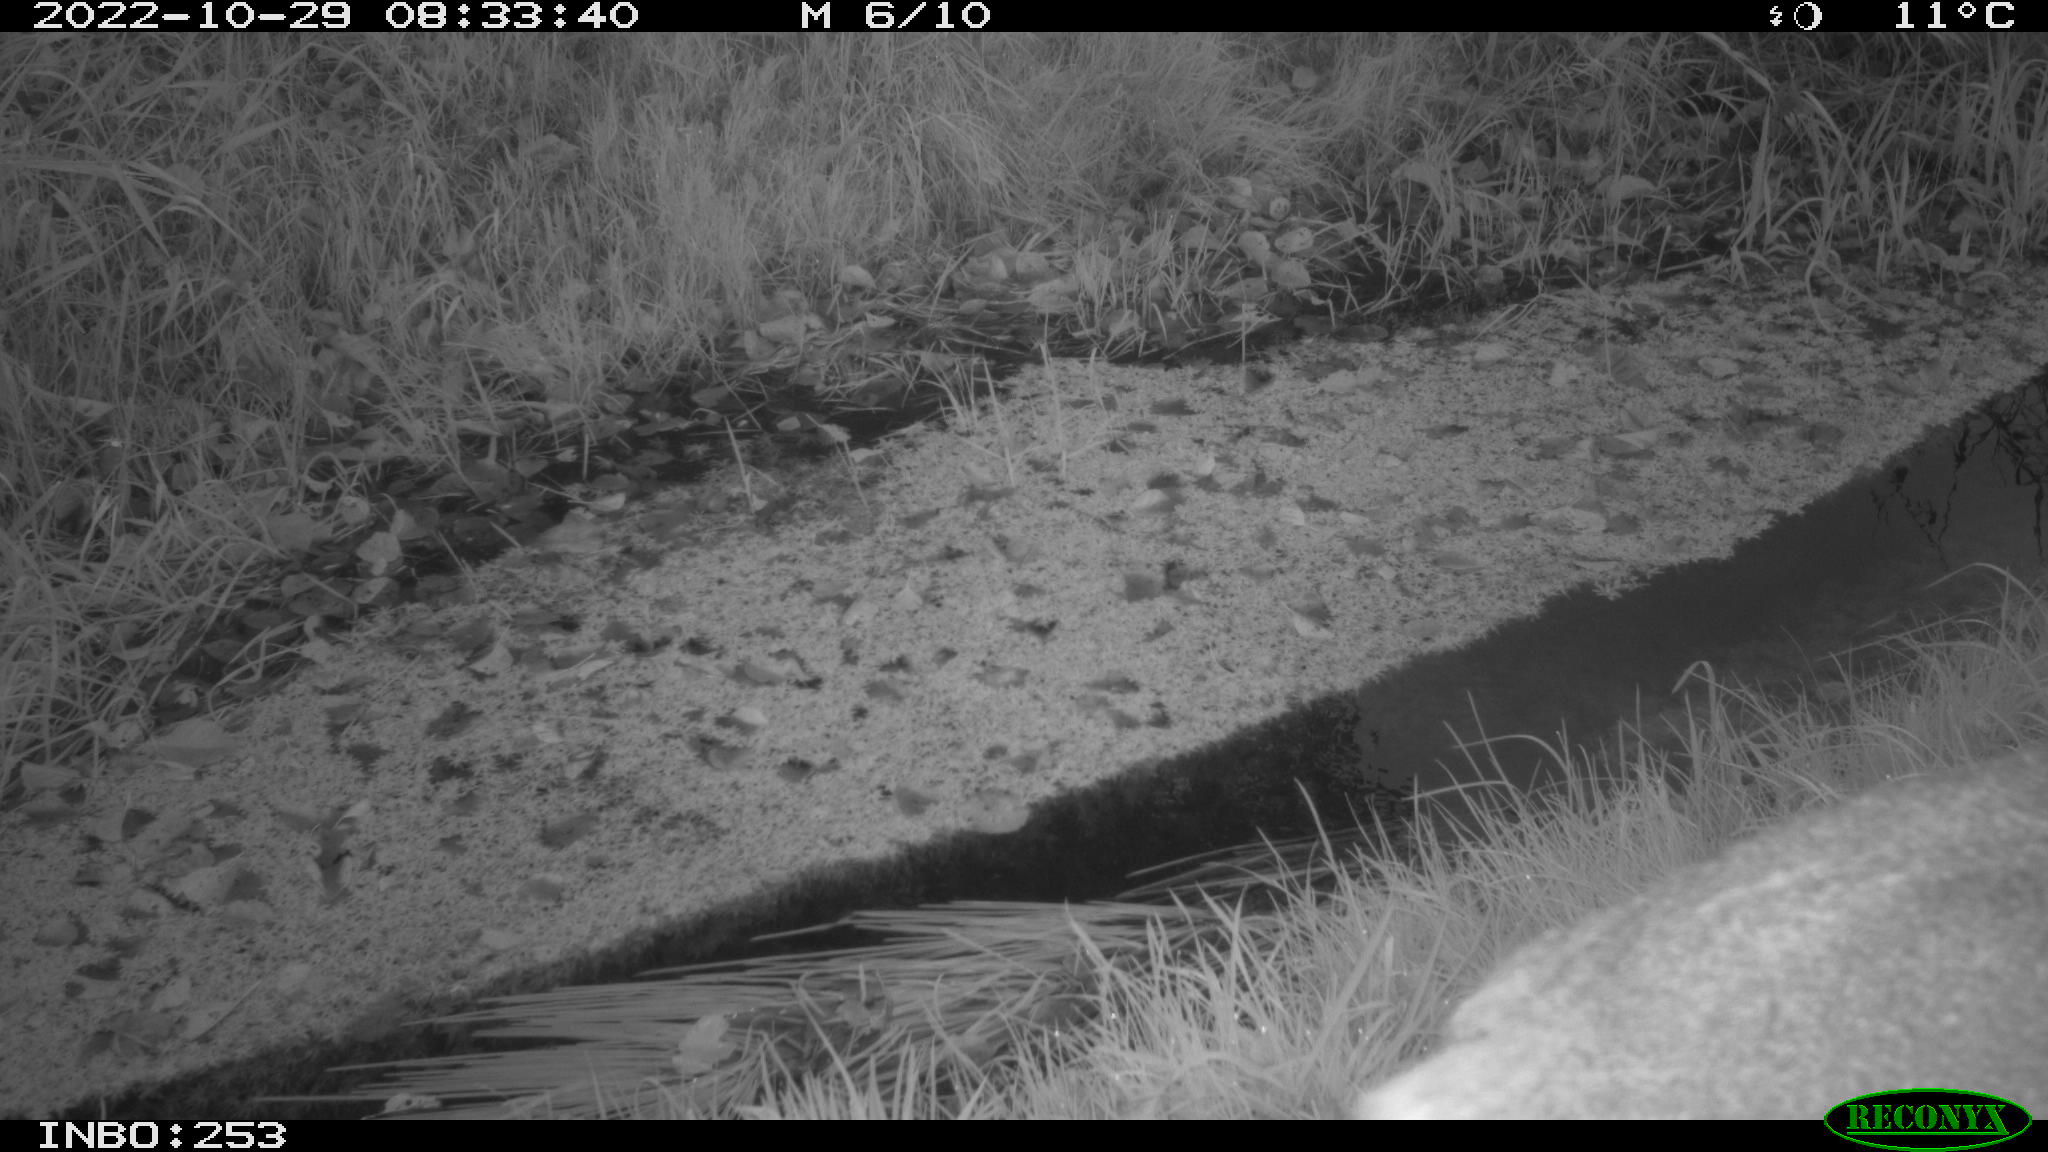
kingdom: Animalia
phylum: Chordata
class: Mammalia
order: Artiodactyla
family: Cervidae
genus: Capreolus
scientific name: Capreolus capreolus
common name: Western roe deer
